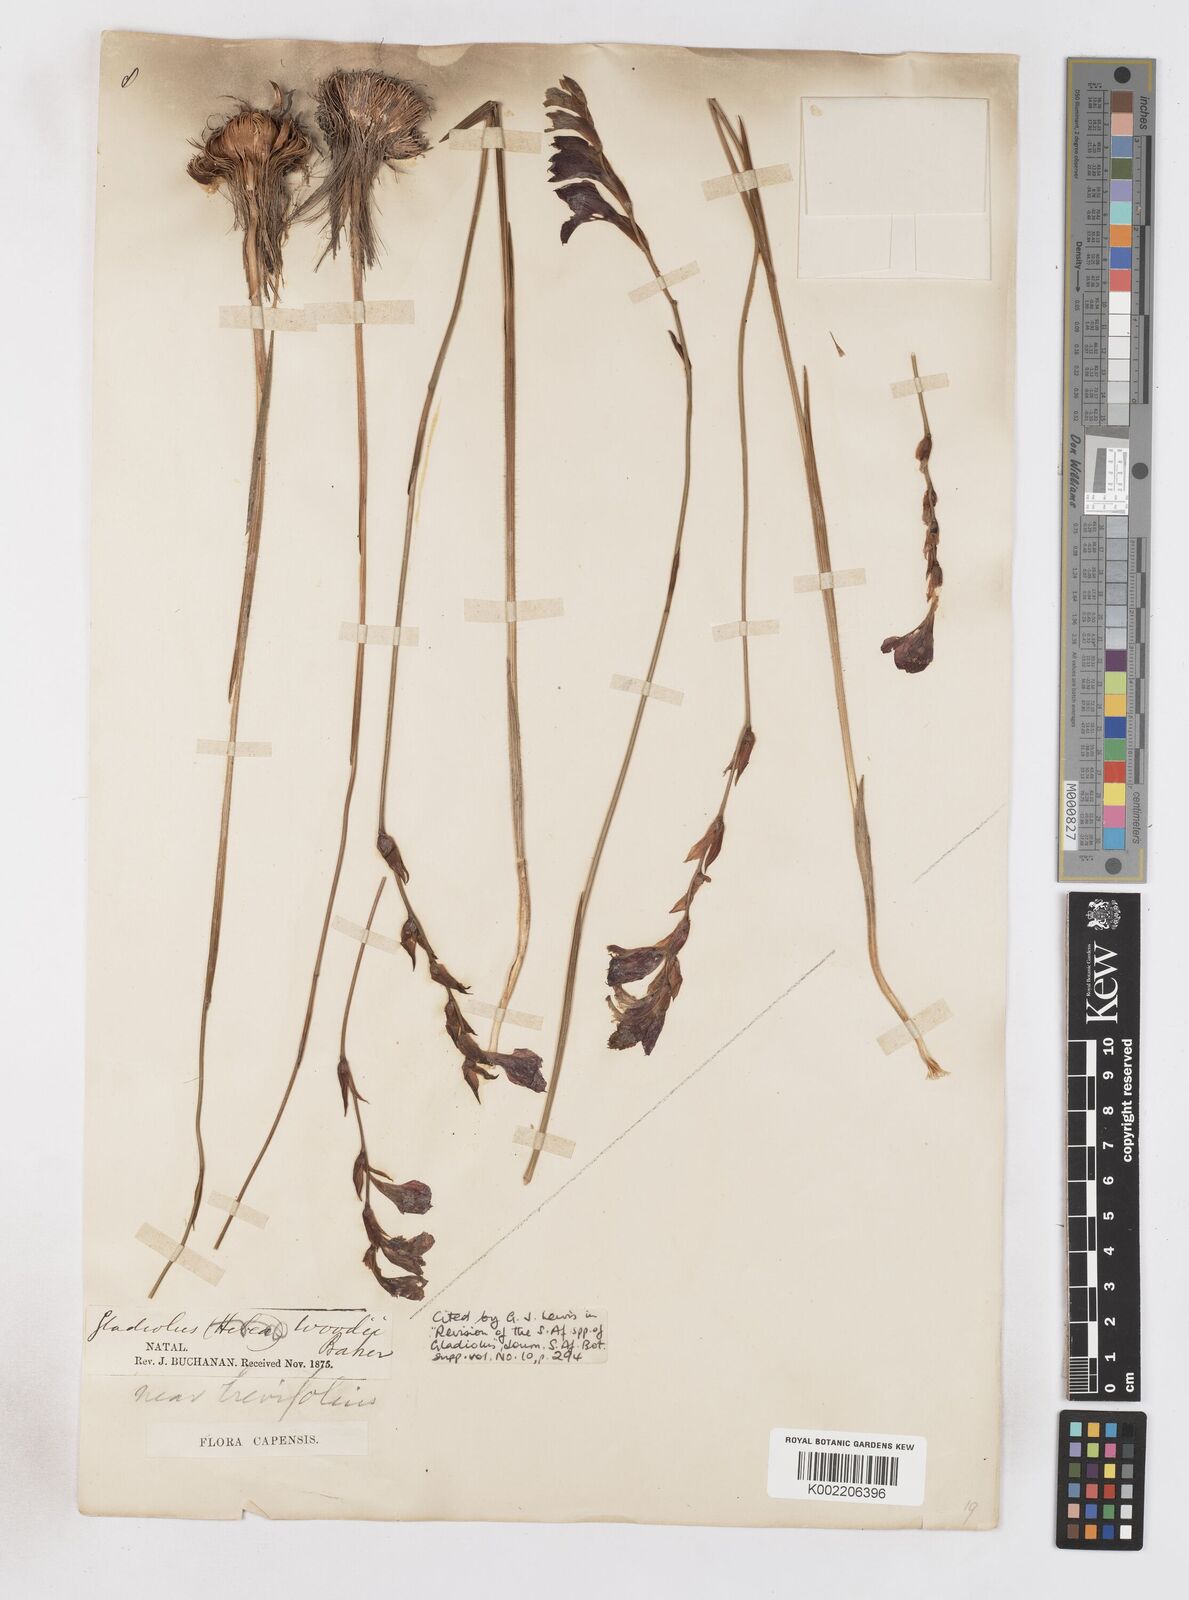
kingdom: Plantae
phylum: Tracheophyta
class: Liliopsida
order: Asparagales
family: Iridaceae
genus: Gladiolus
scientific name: Gladiolus woodii
